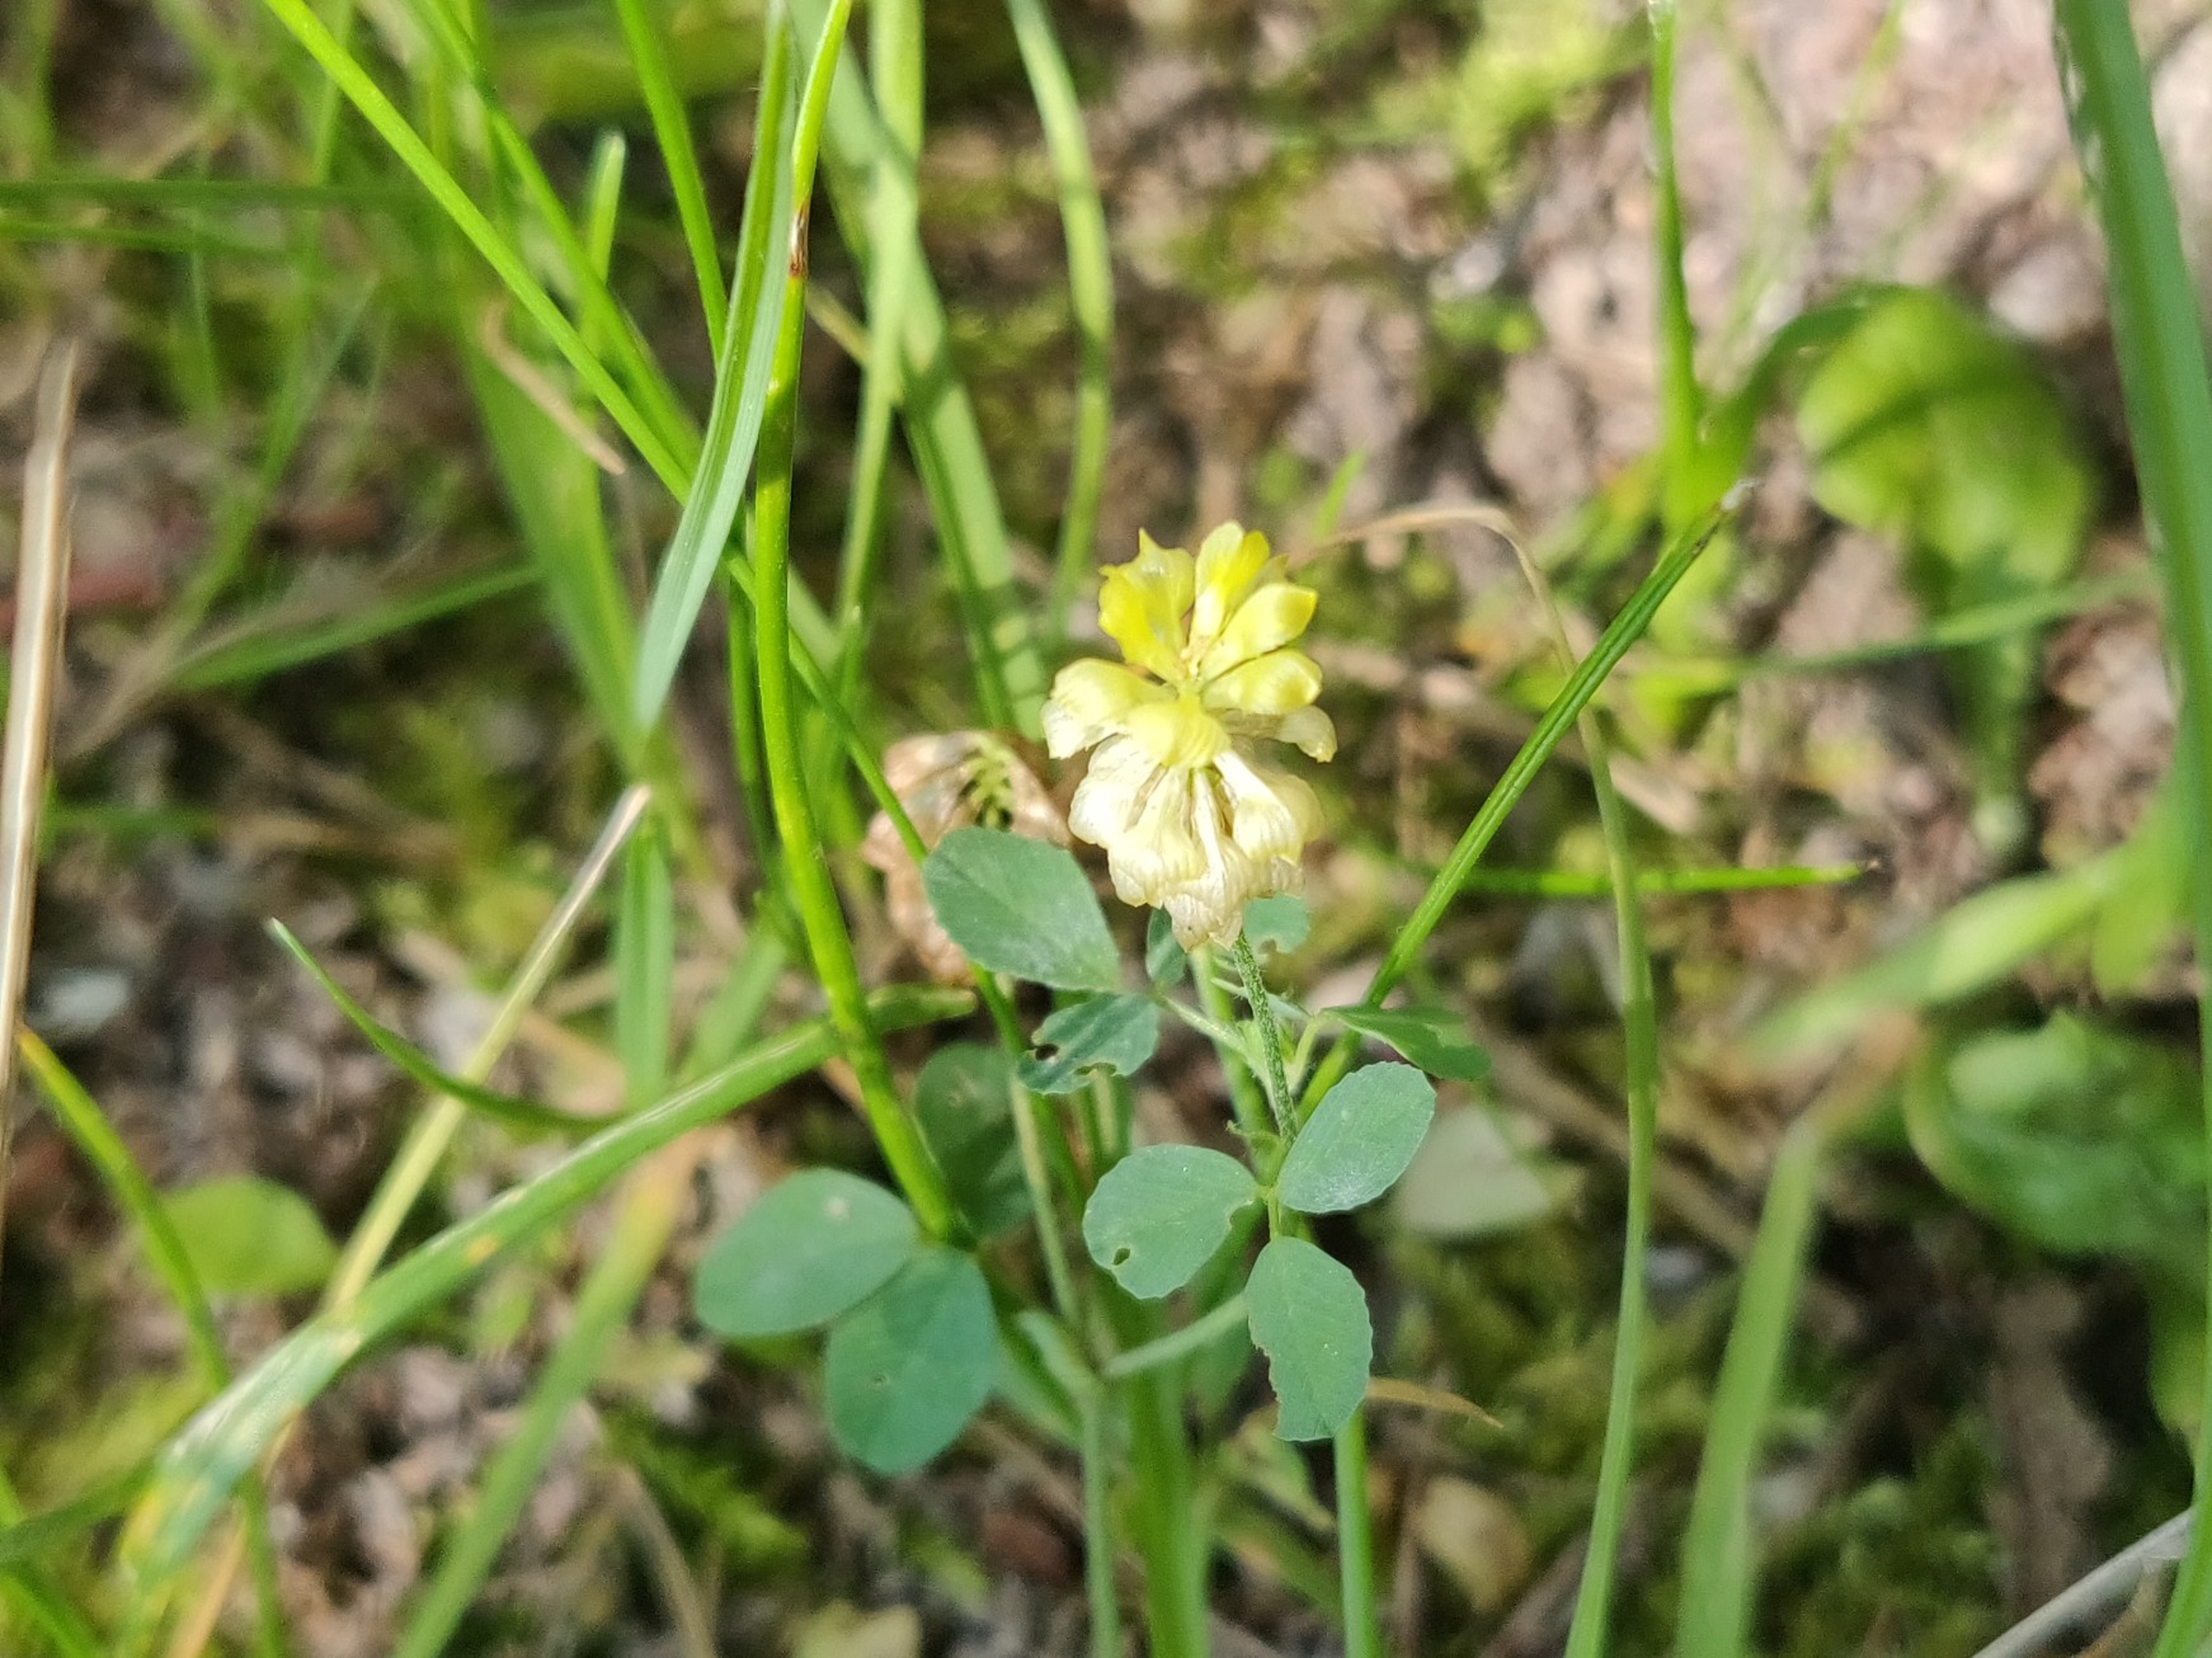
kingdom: Plantae
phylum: Tracheophyta
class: Magnoliopsida
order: Fabales
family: Fabaceae
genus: Trifolium
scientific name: Trifolium campestre
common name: Gul kløver
